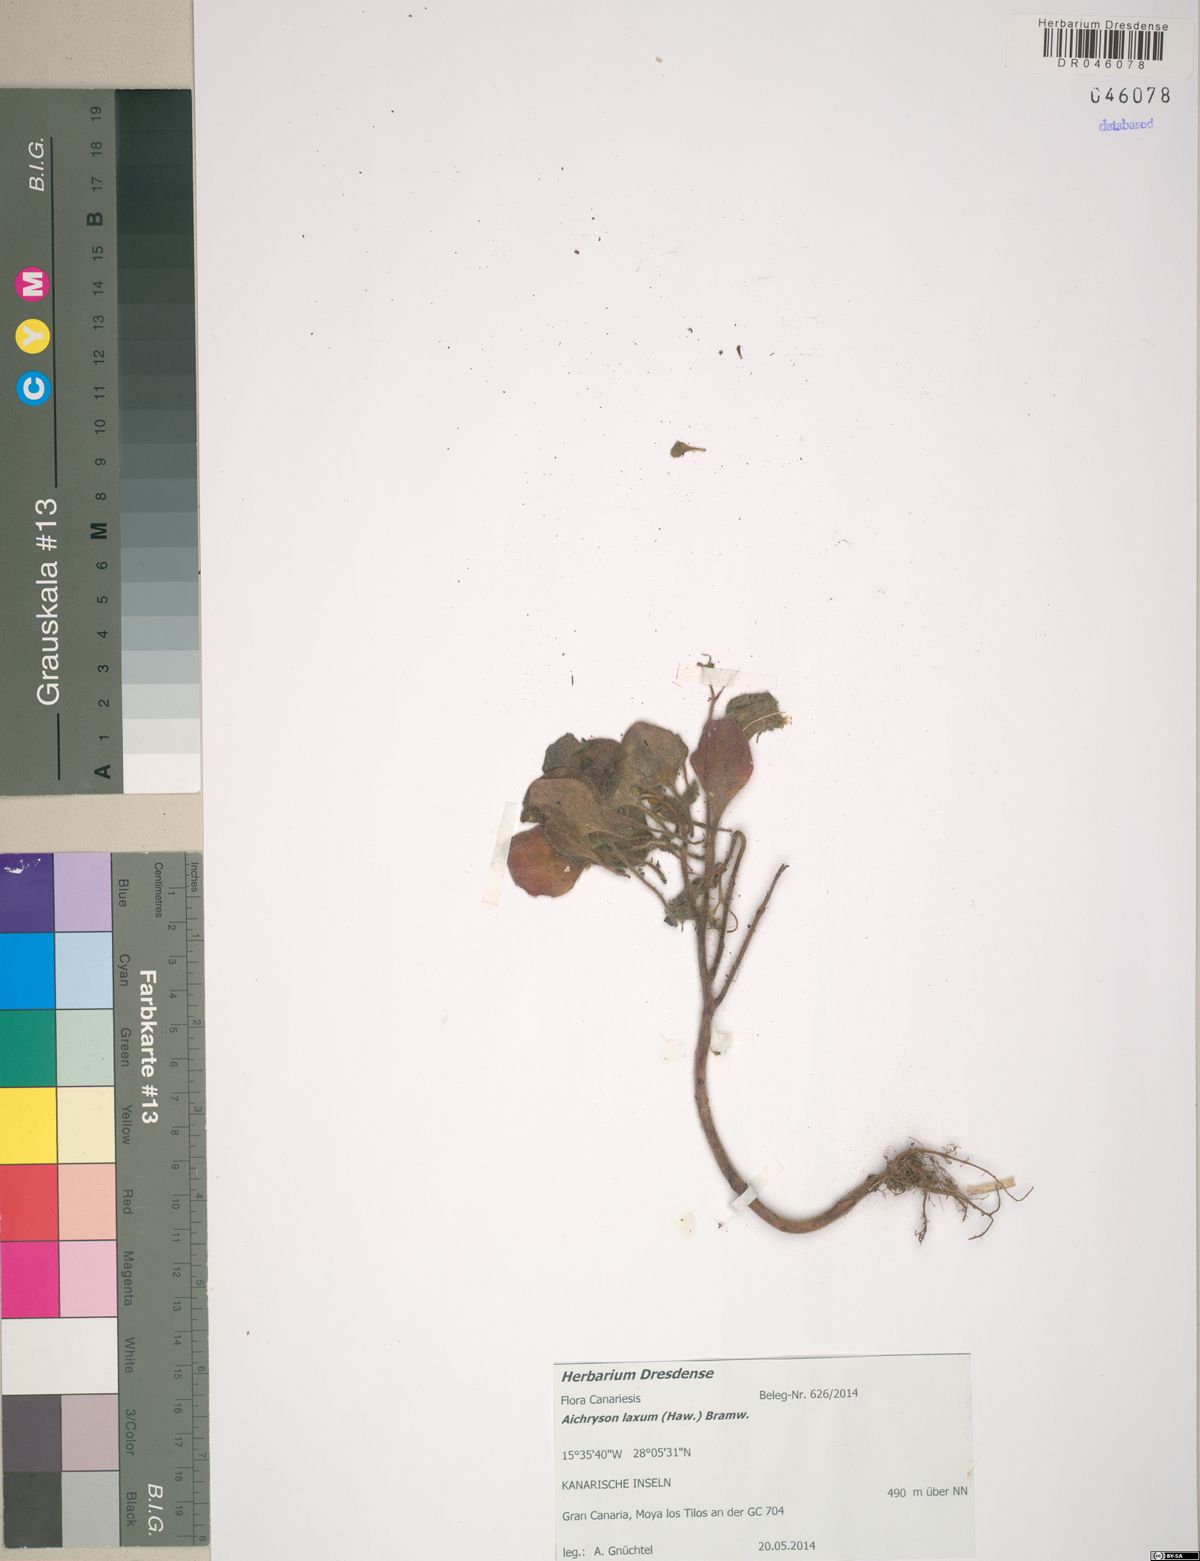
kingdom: Plantae
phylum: Tracheophyta
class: Magnoliopsida
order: Saxifragales
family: Crassulaceae
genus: Aichryson
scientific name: Aichryson laxum
